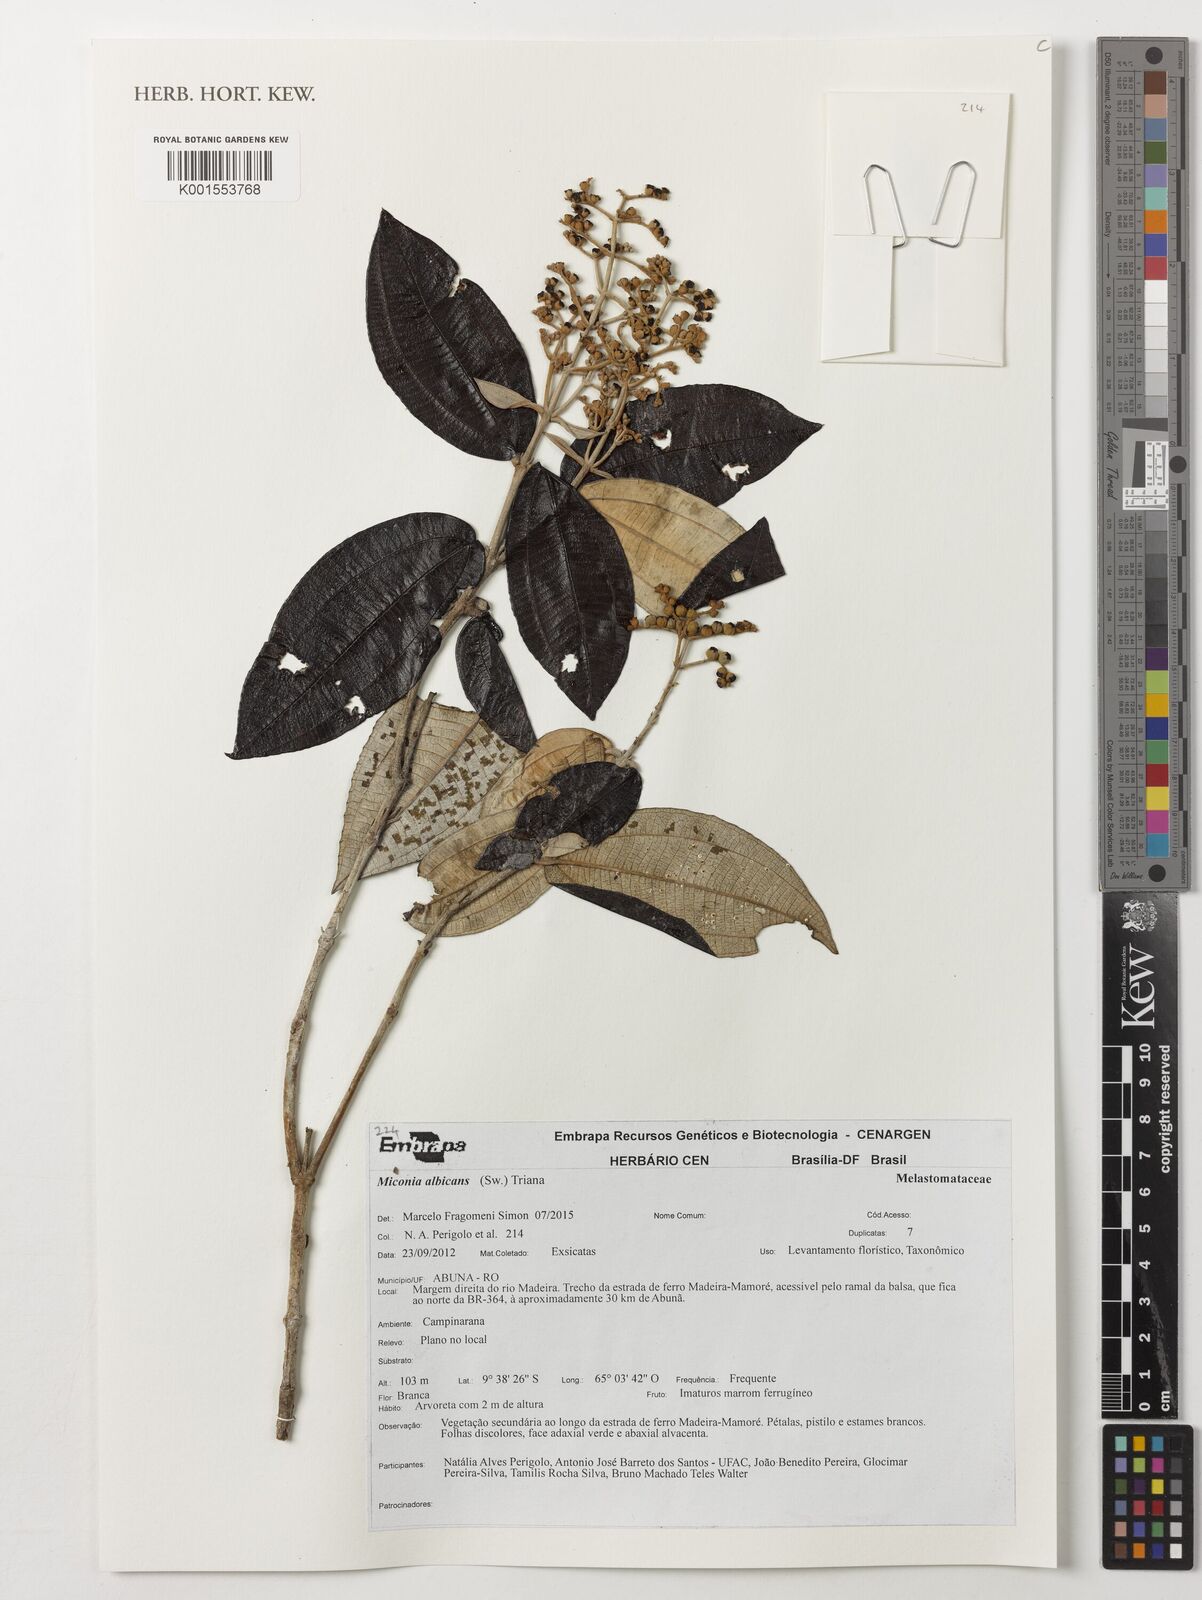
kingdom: Plantae
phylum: Tracheophyta
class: Magnoliopsida
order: Myrtales
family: Melastomataceae
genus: Miconia
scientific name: Miconia albicans
